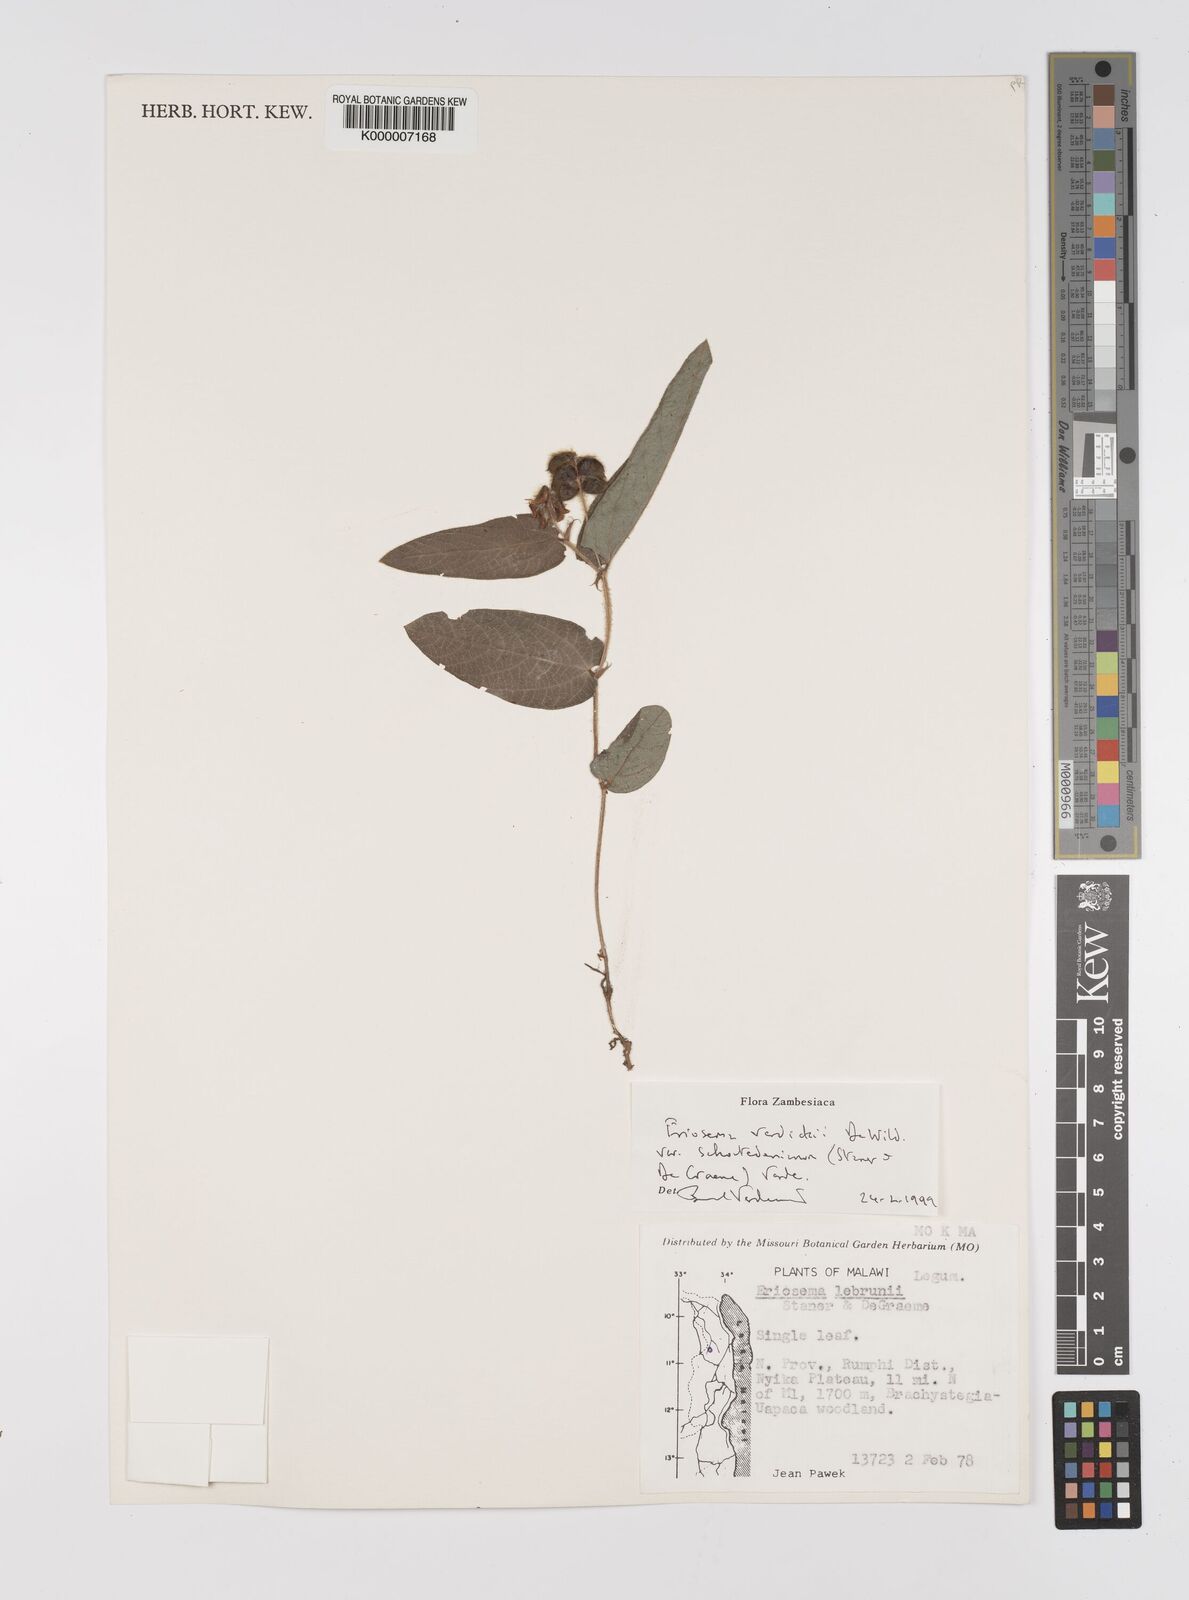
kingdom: Plantae
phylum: Tracheophyta
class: Magnoliopsida
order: Fabales
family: Fabaceae
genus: Eriosema
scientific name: Eriosema verdickii
